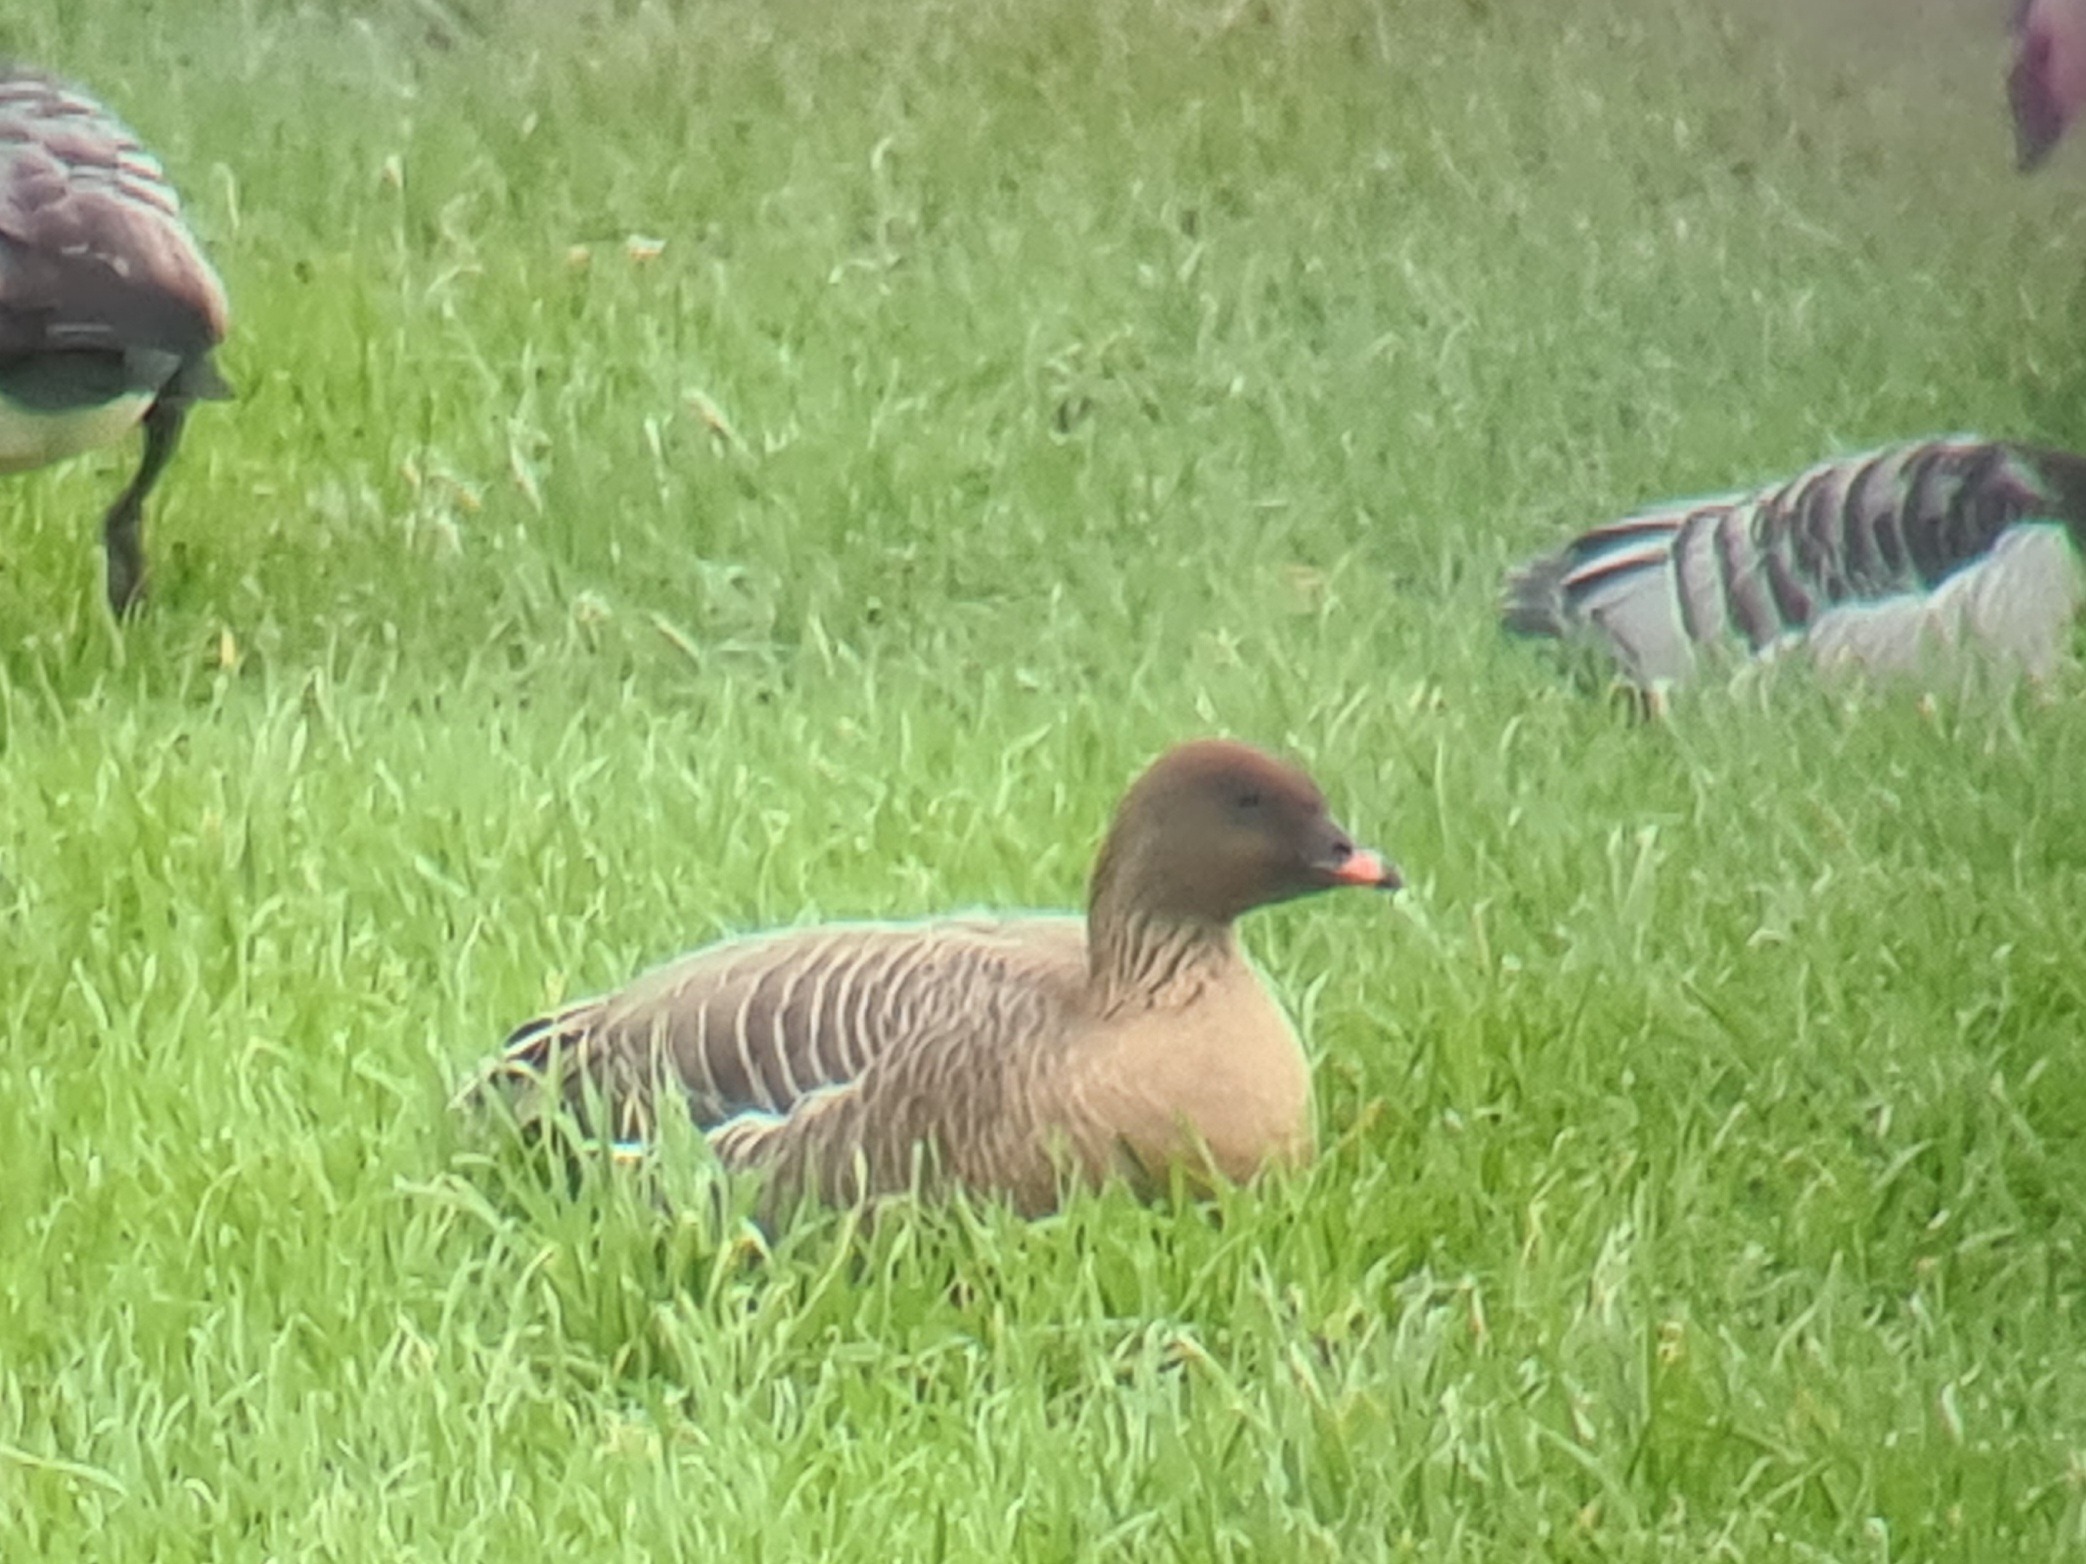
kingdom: Animalia
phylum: Chordata
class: Aves
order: Anseriformes
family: Anatidae
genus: Anser
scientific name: Anser brachyrhynchus
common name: Kortnæbbet gås
